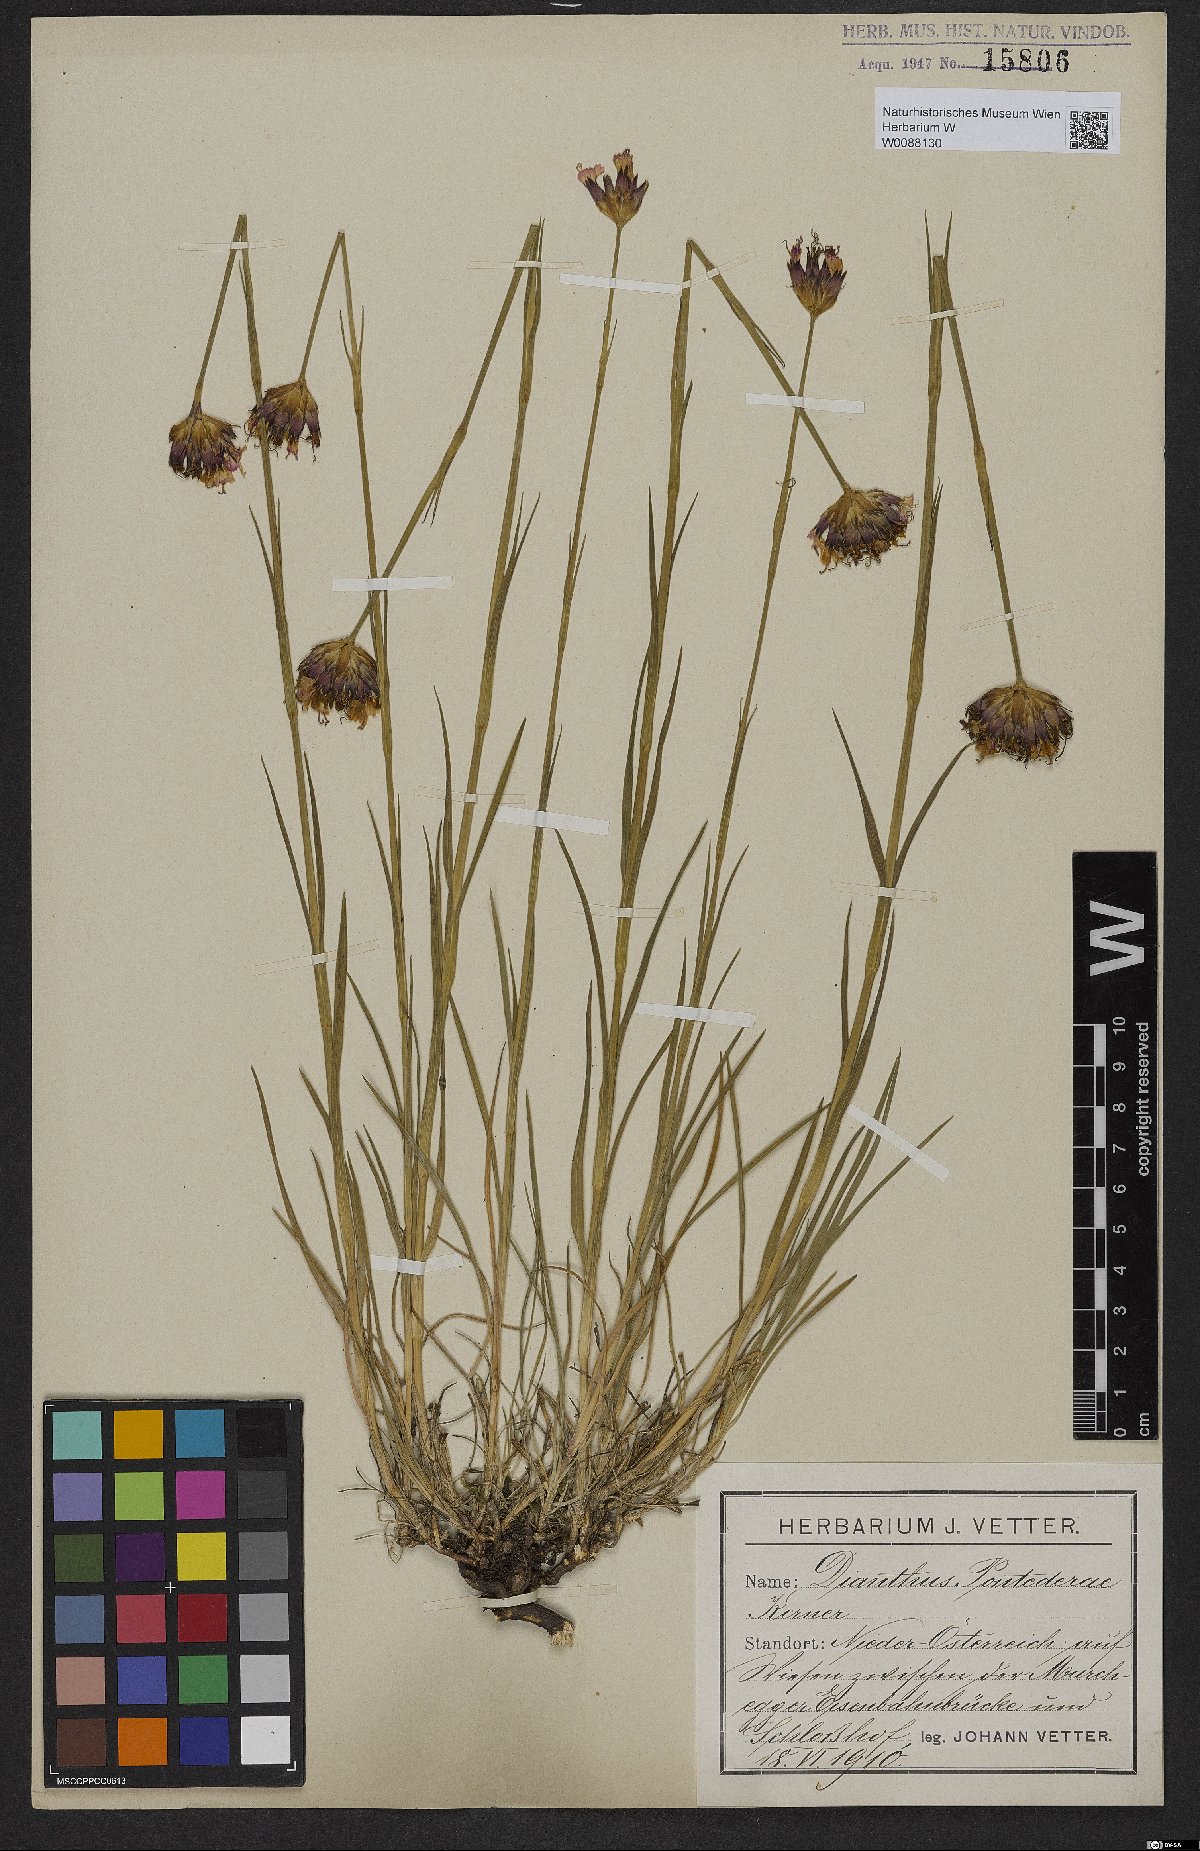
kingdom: Plantae
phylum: Tracheophyta
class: Magnoliopsida
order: Caryophyllales
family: Caryophyllaceae
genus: Dianthus
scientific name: Dianthus pontederae
